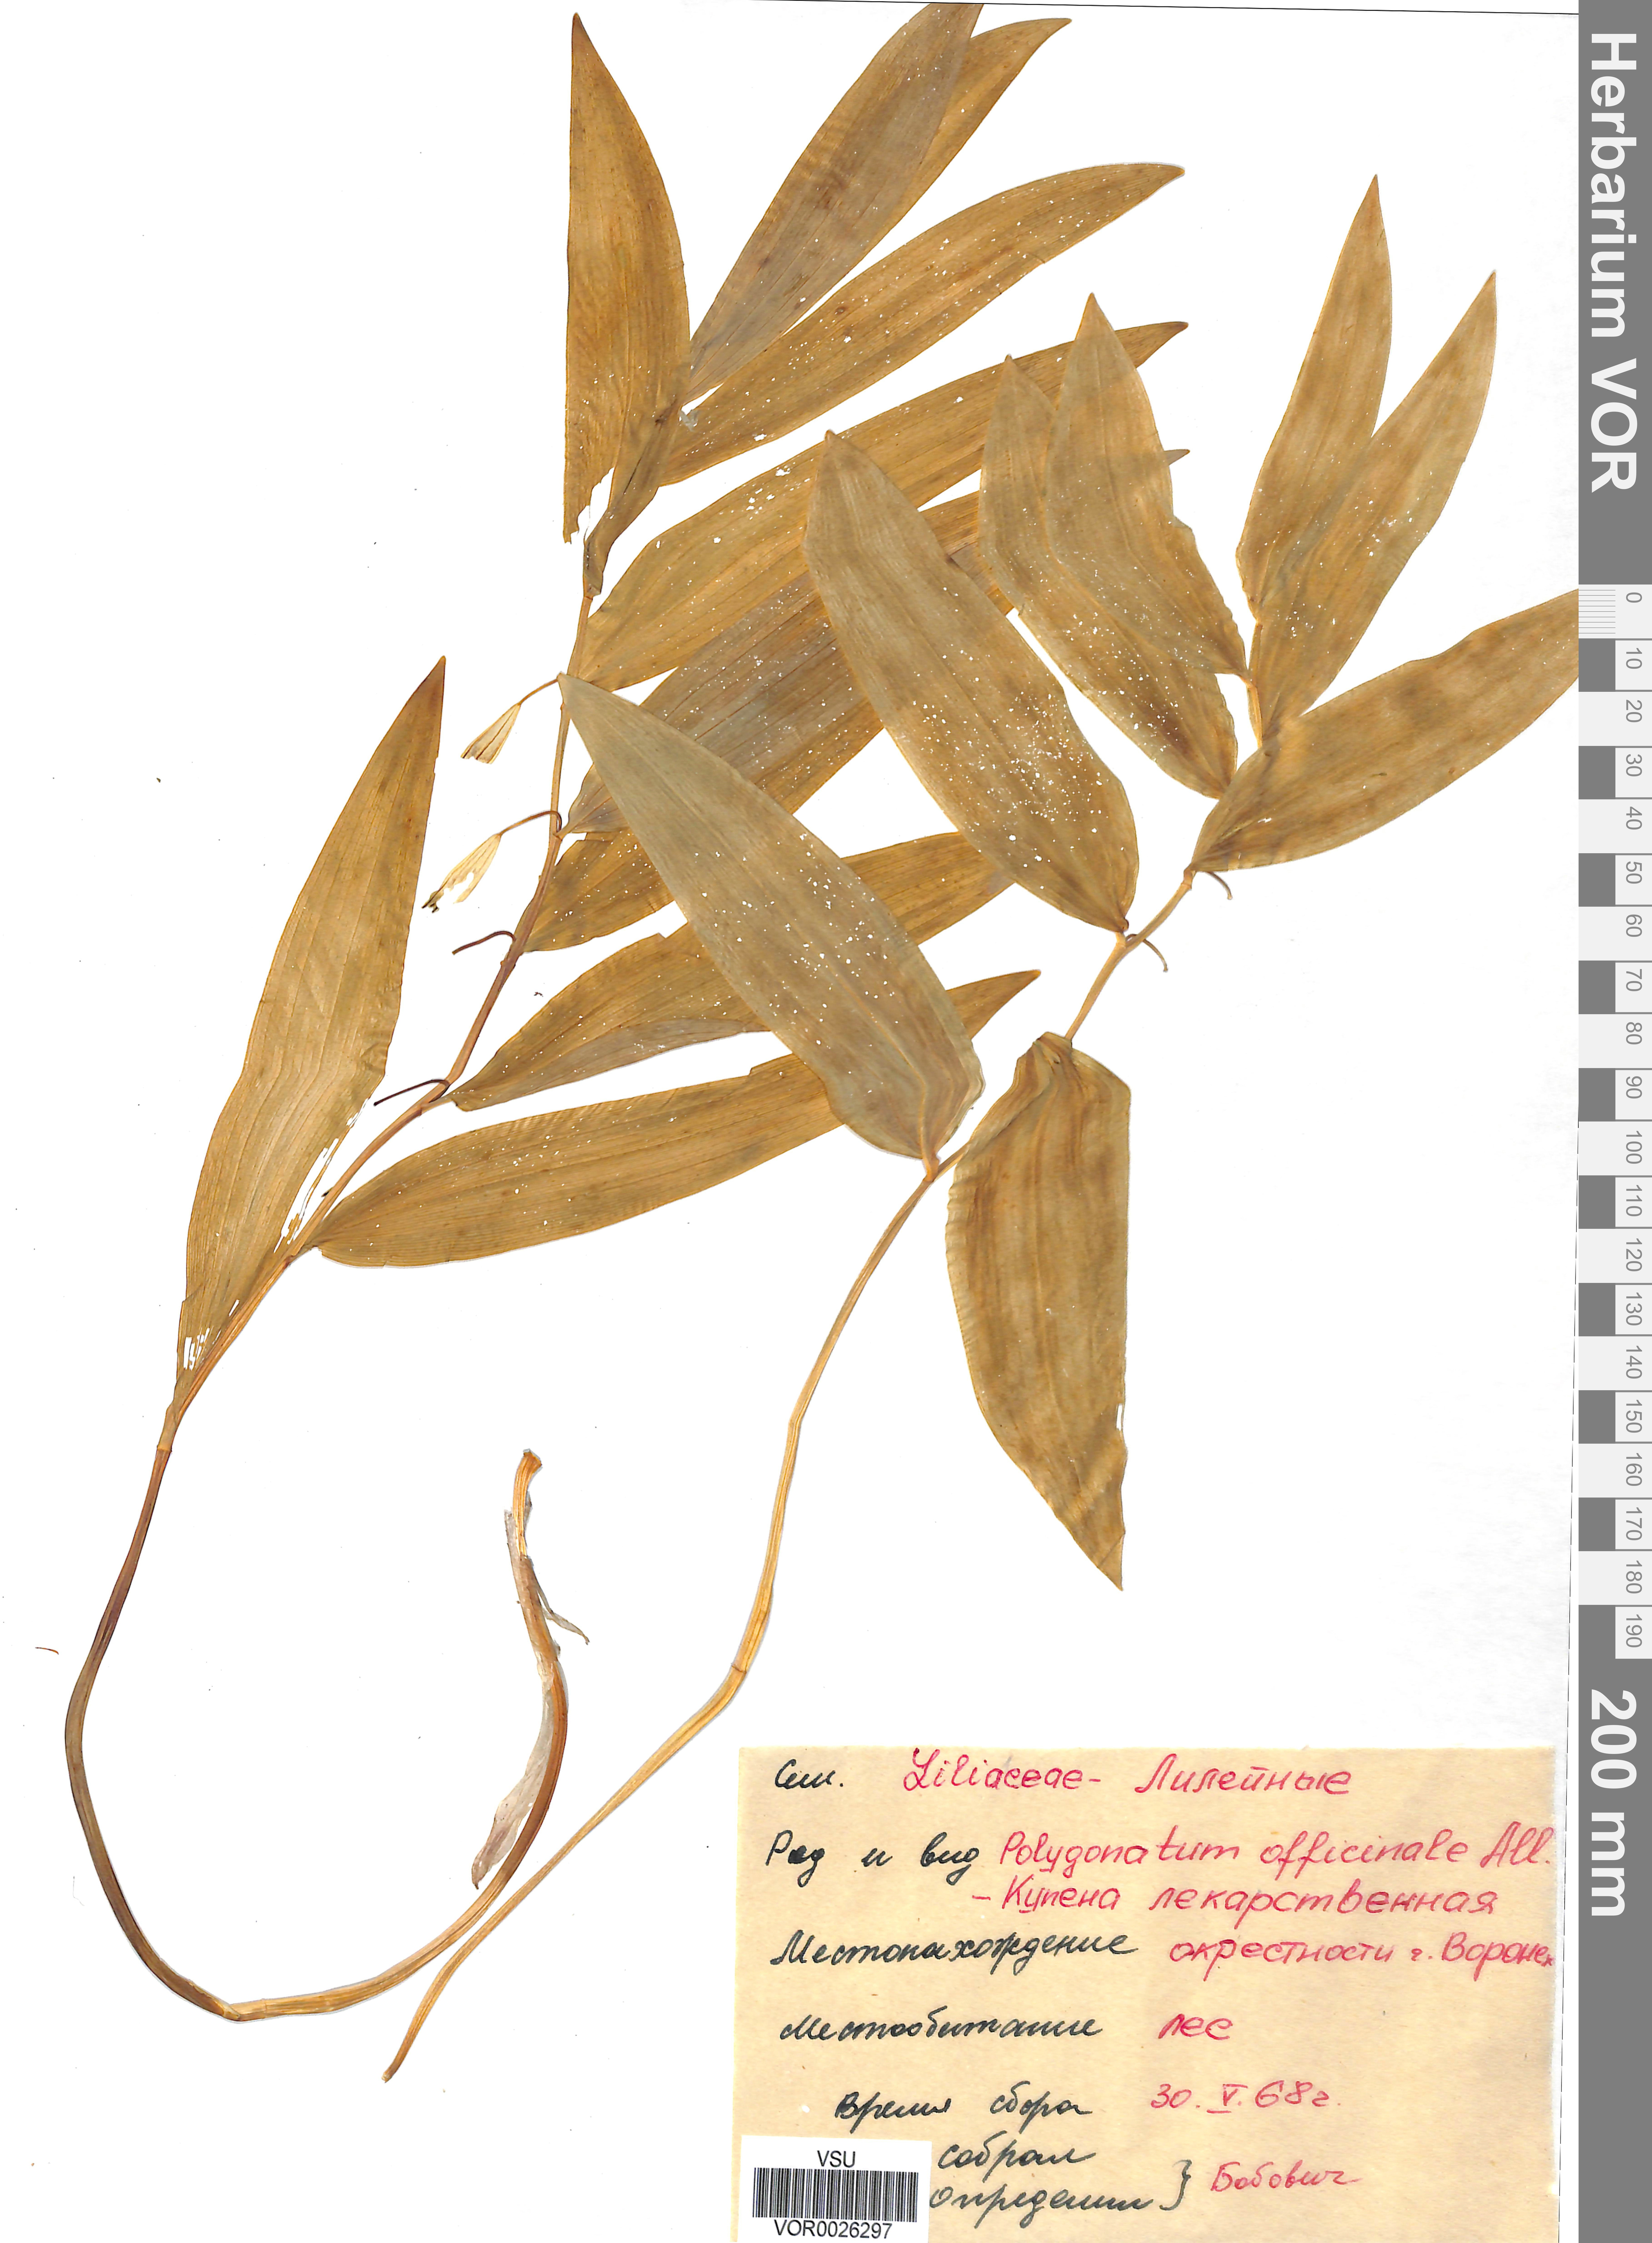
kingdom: Plantae
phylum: Tracheophyta
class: Liliopsida
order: Asparagales
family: Asparagaceae
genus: Polygonatum
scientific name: Polygonatum odoratum
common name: Angular solomon's-seal
